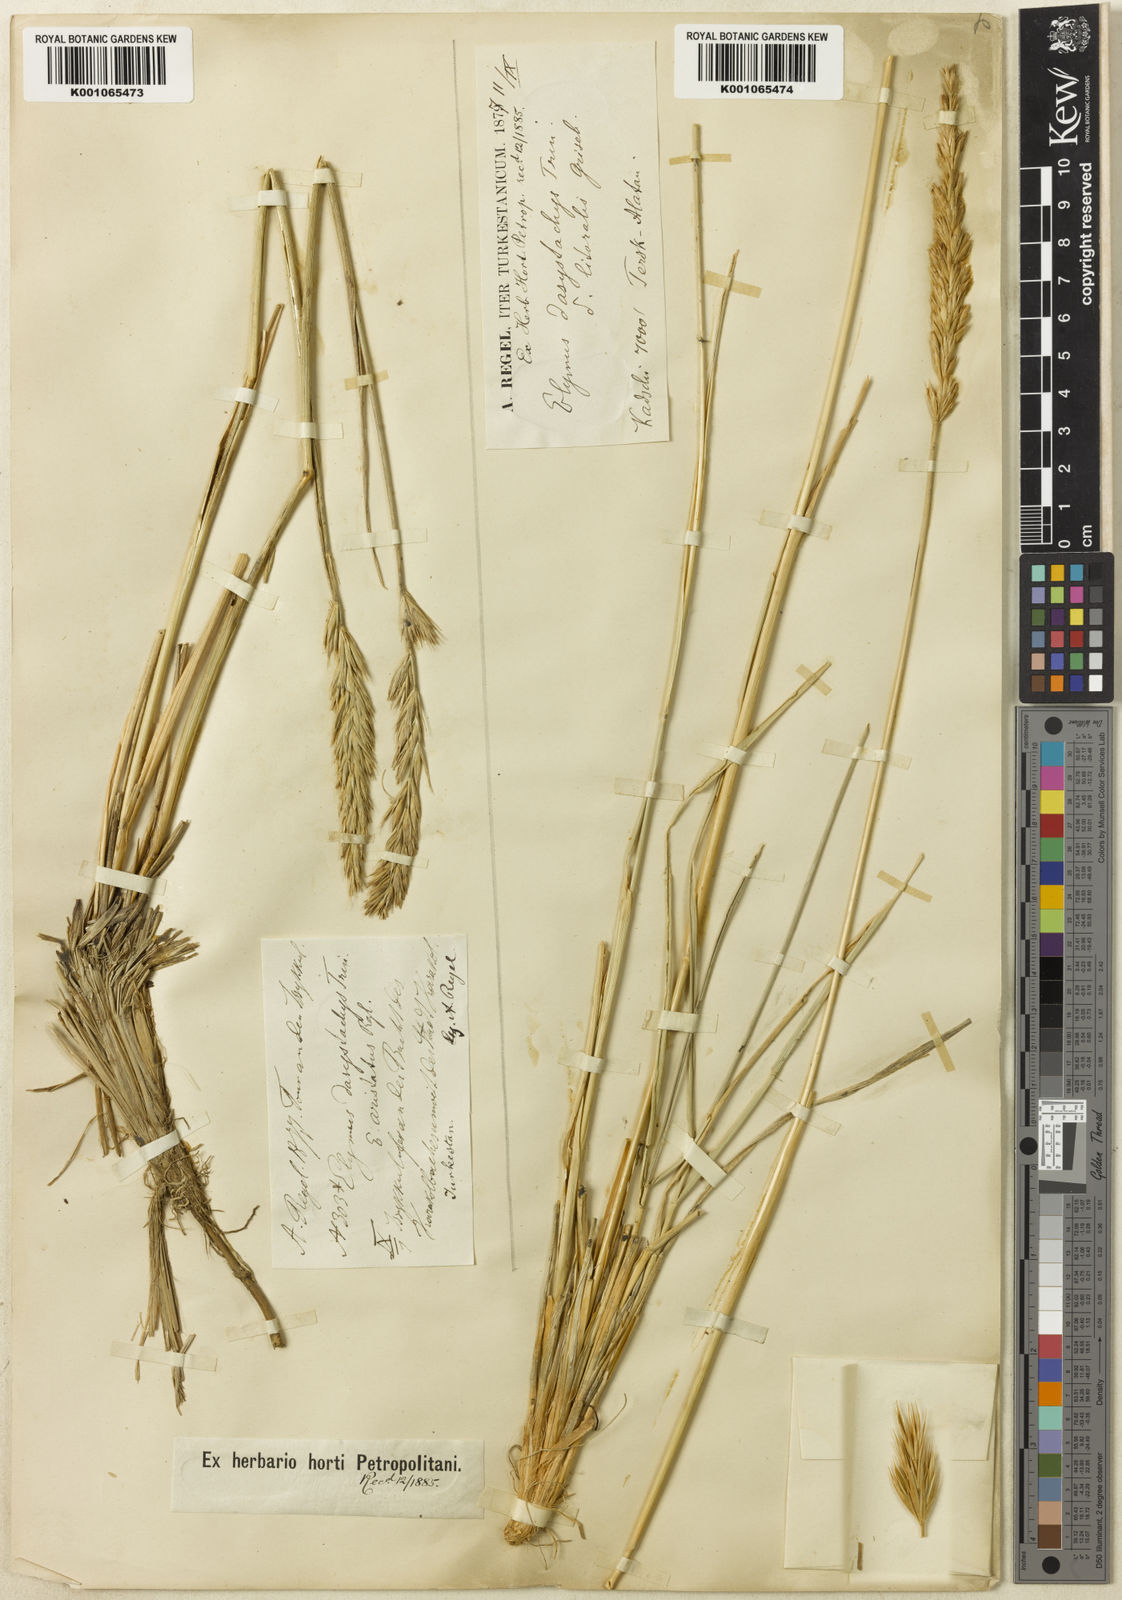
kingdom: Plantae
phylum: Tracheophyta
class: Liliopsida
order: Poales
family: Poaceae
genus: Leymus
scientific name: Leymus secalinus
